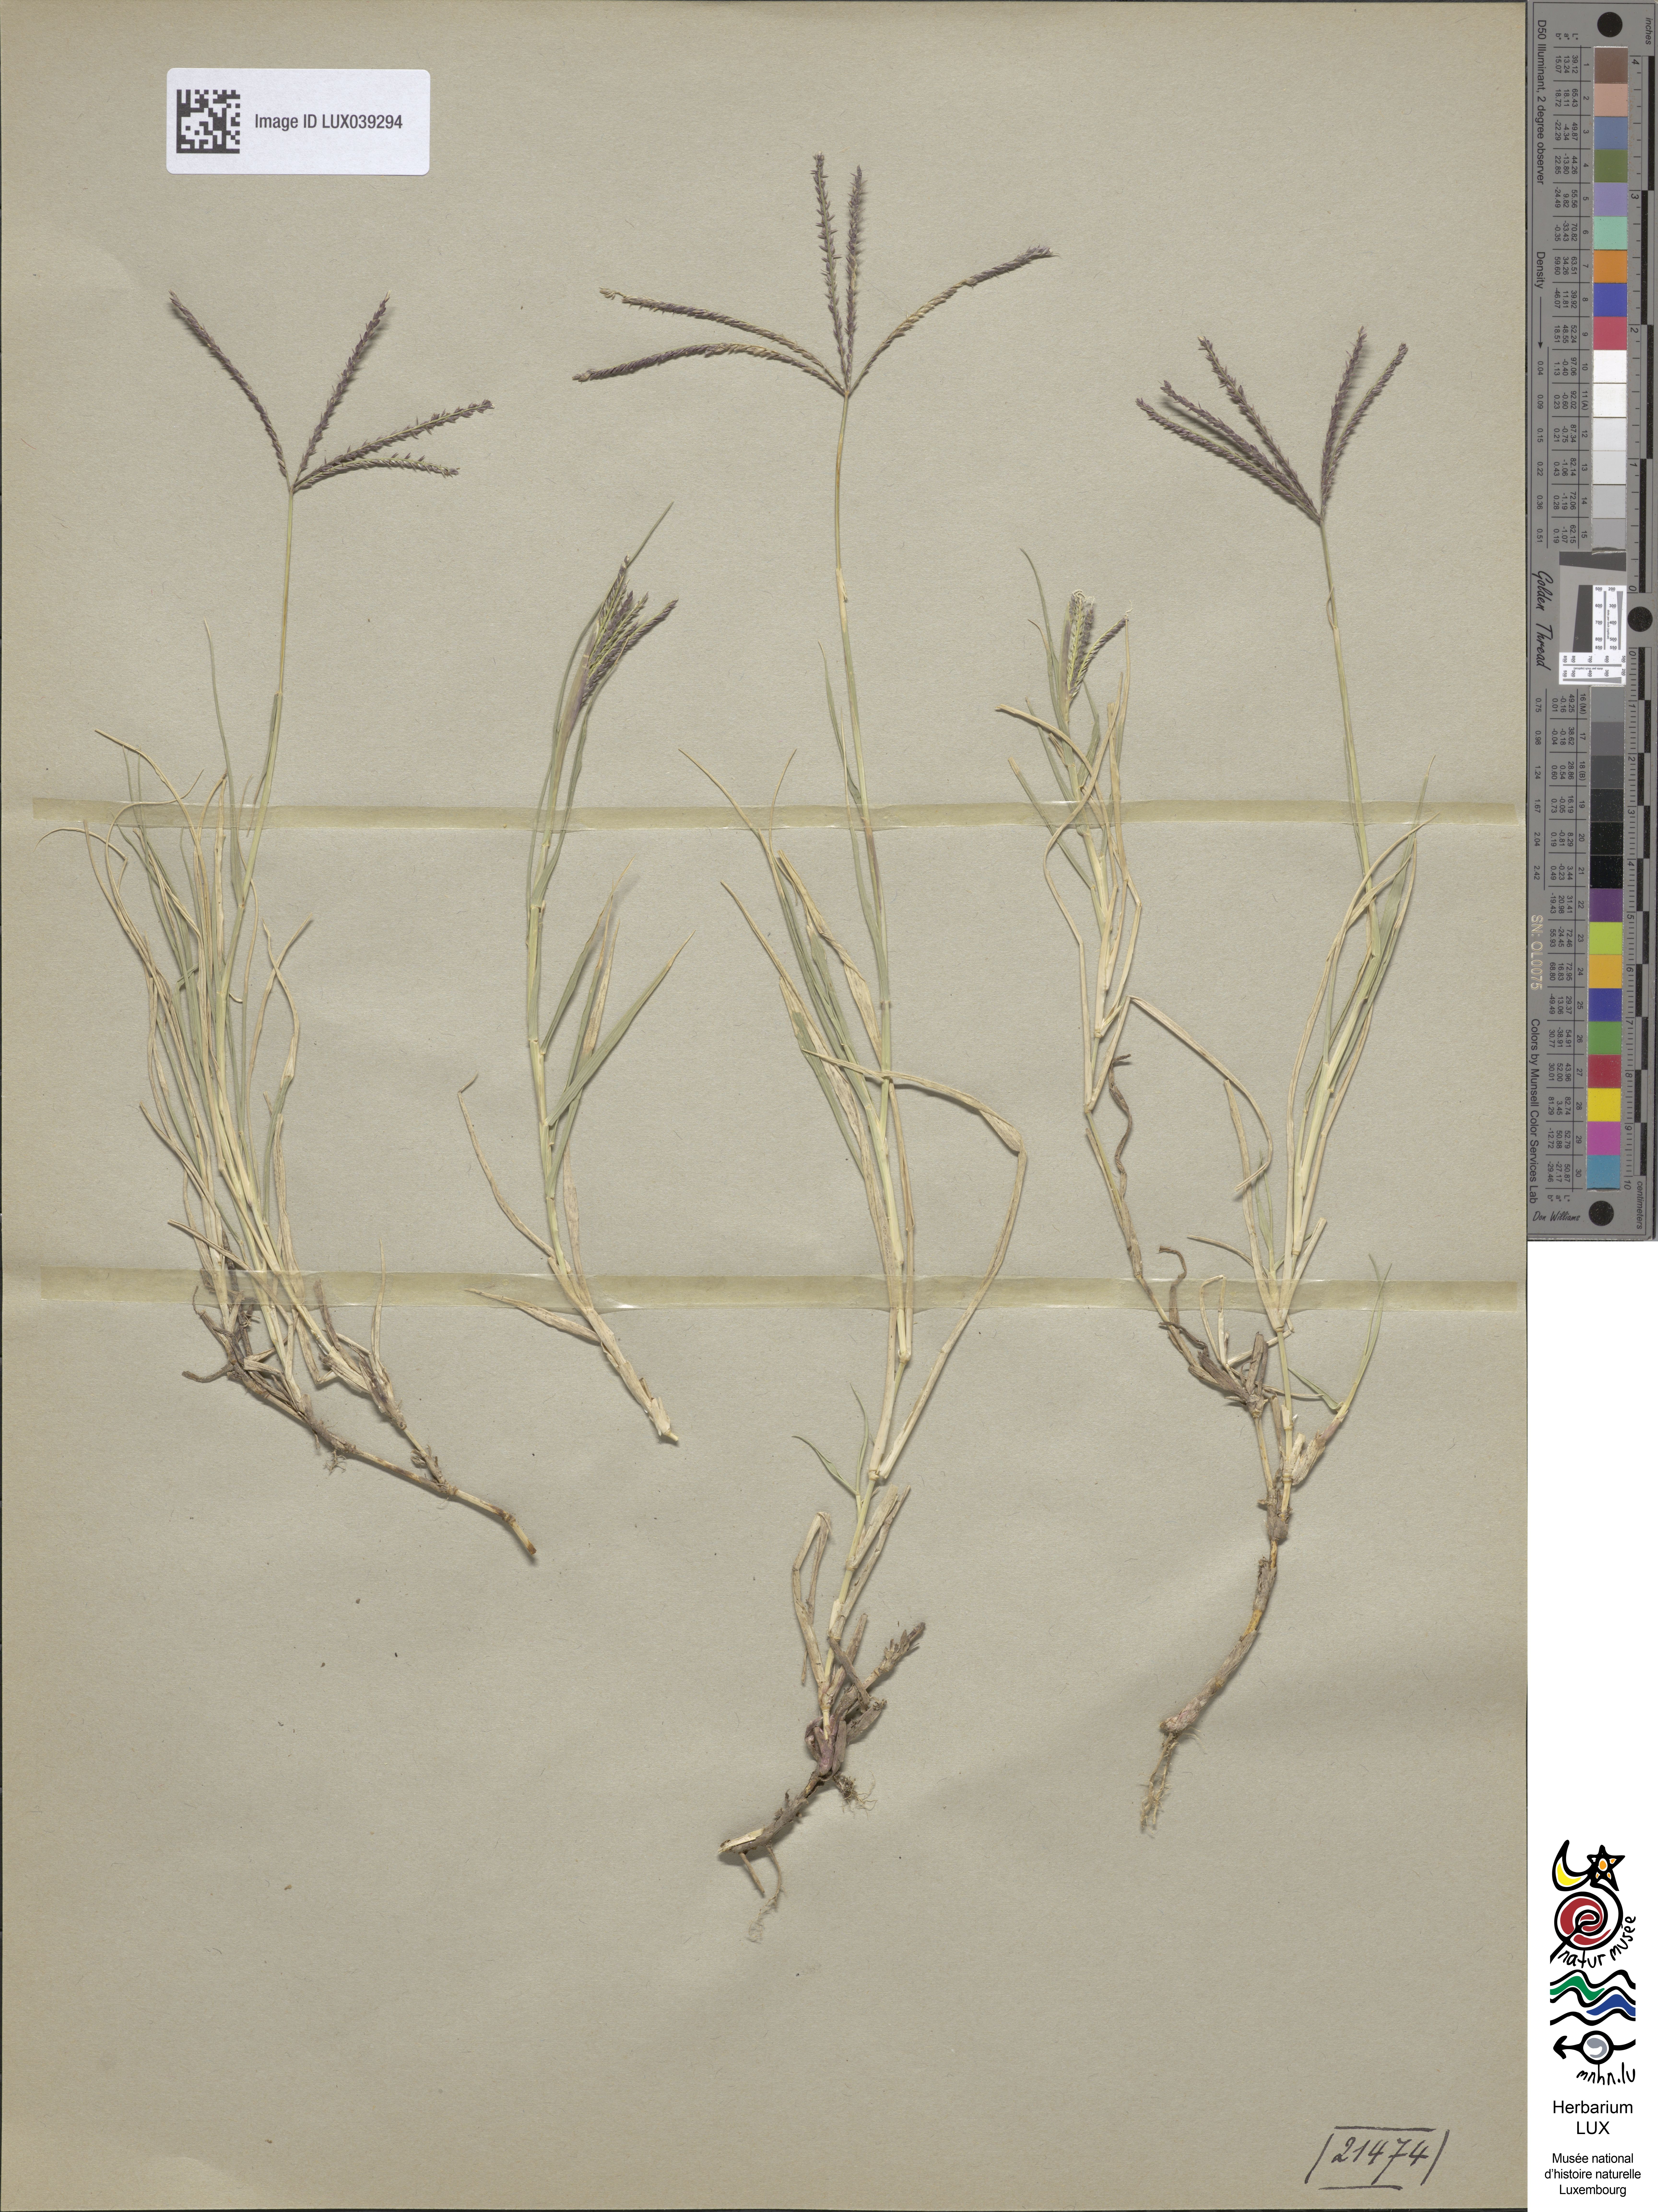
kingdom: Plantae
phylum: Tracheophyta
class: Liliopsida
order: Poales
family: Poaceae
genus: Cynodon
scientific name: Cynodon dactylon
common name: Bermuda grass
